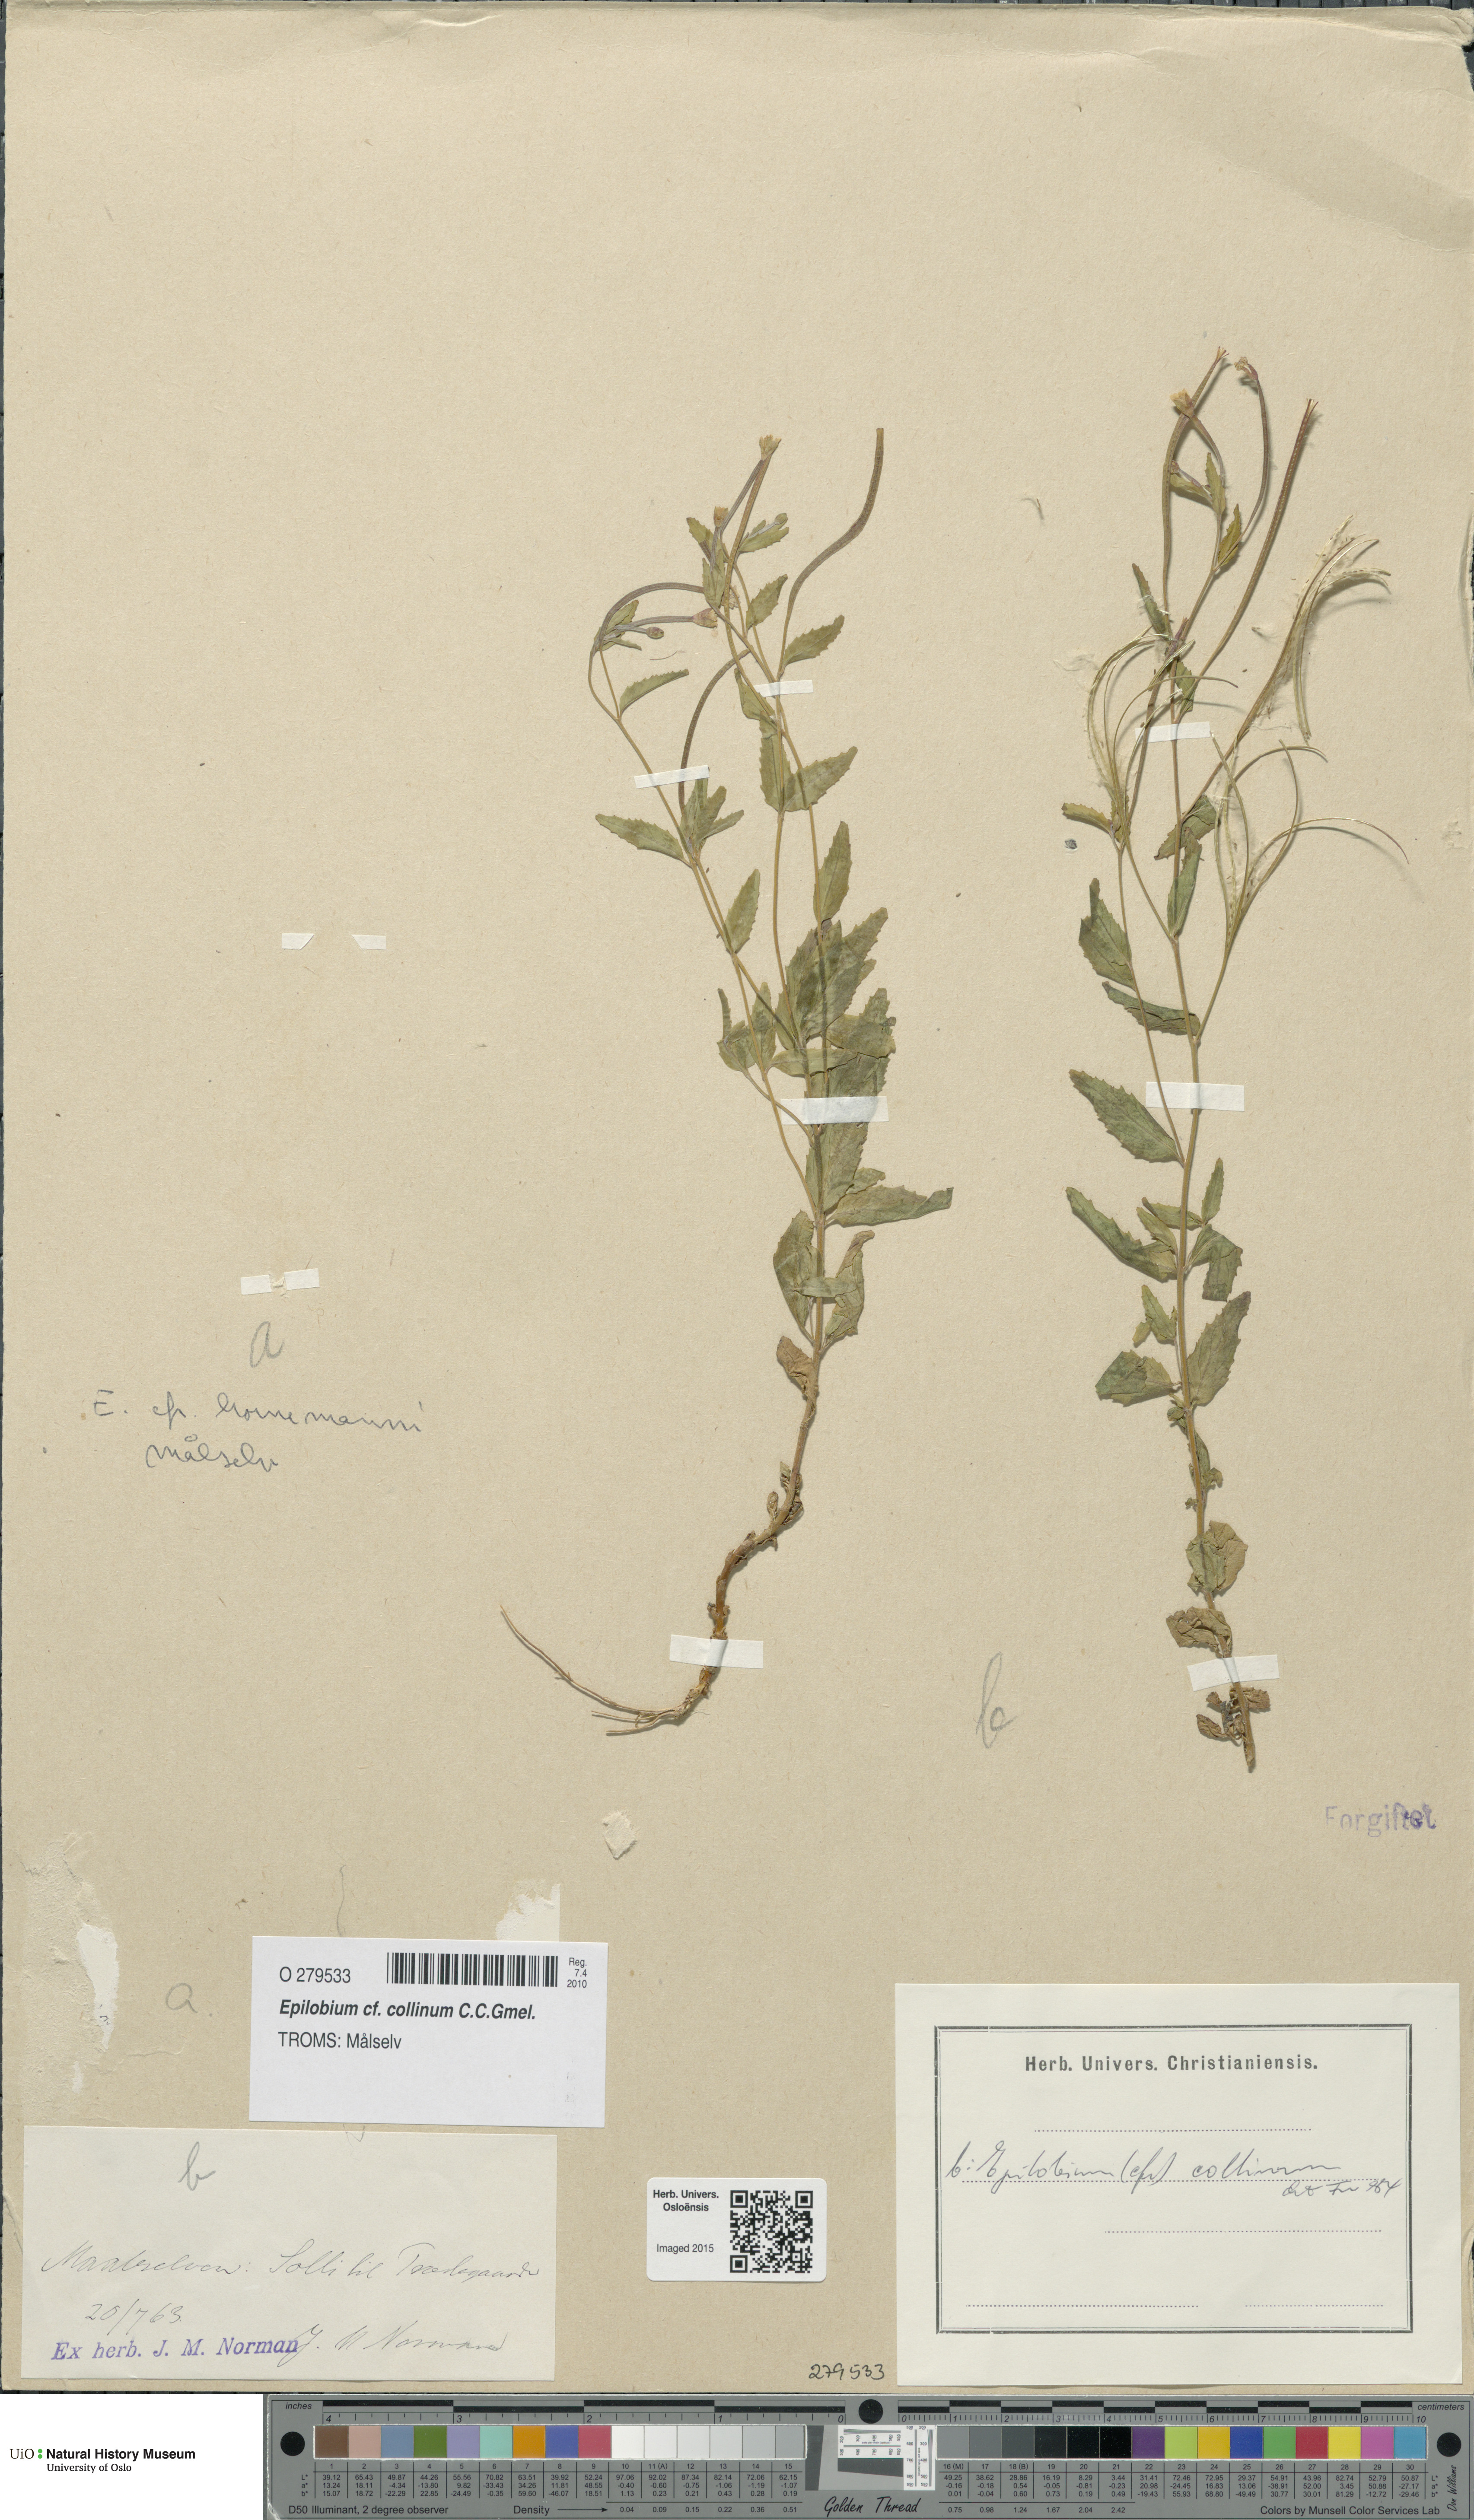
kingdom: Plantae
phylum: Tracheophyta
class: Magnoliopsida
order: Myrtales
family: Onagraceae
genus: Epilobium
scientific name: Epilobium collinum
